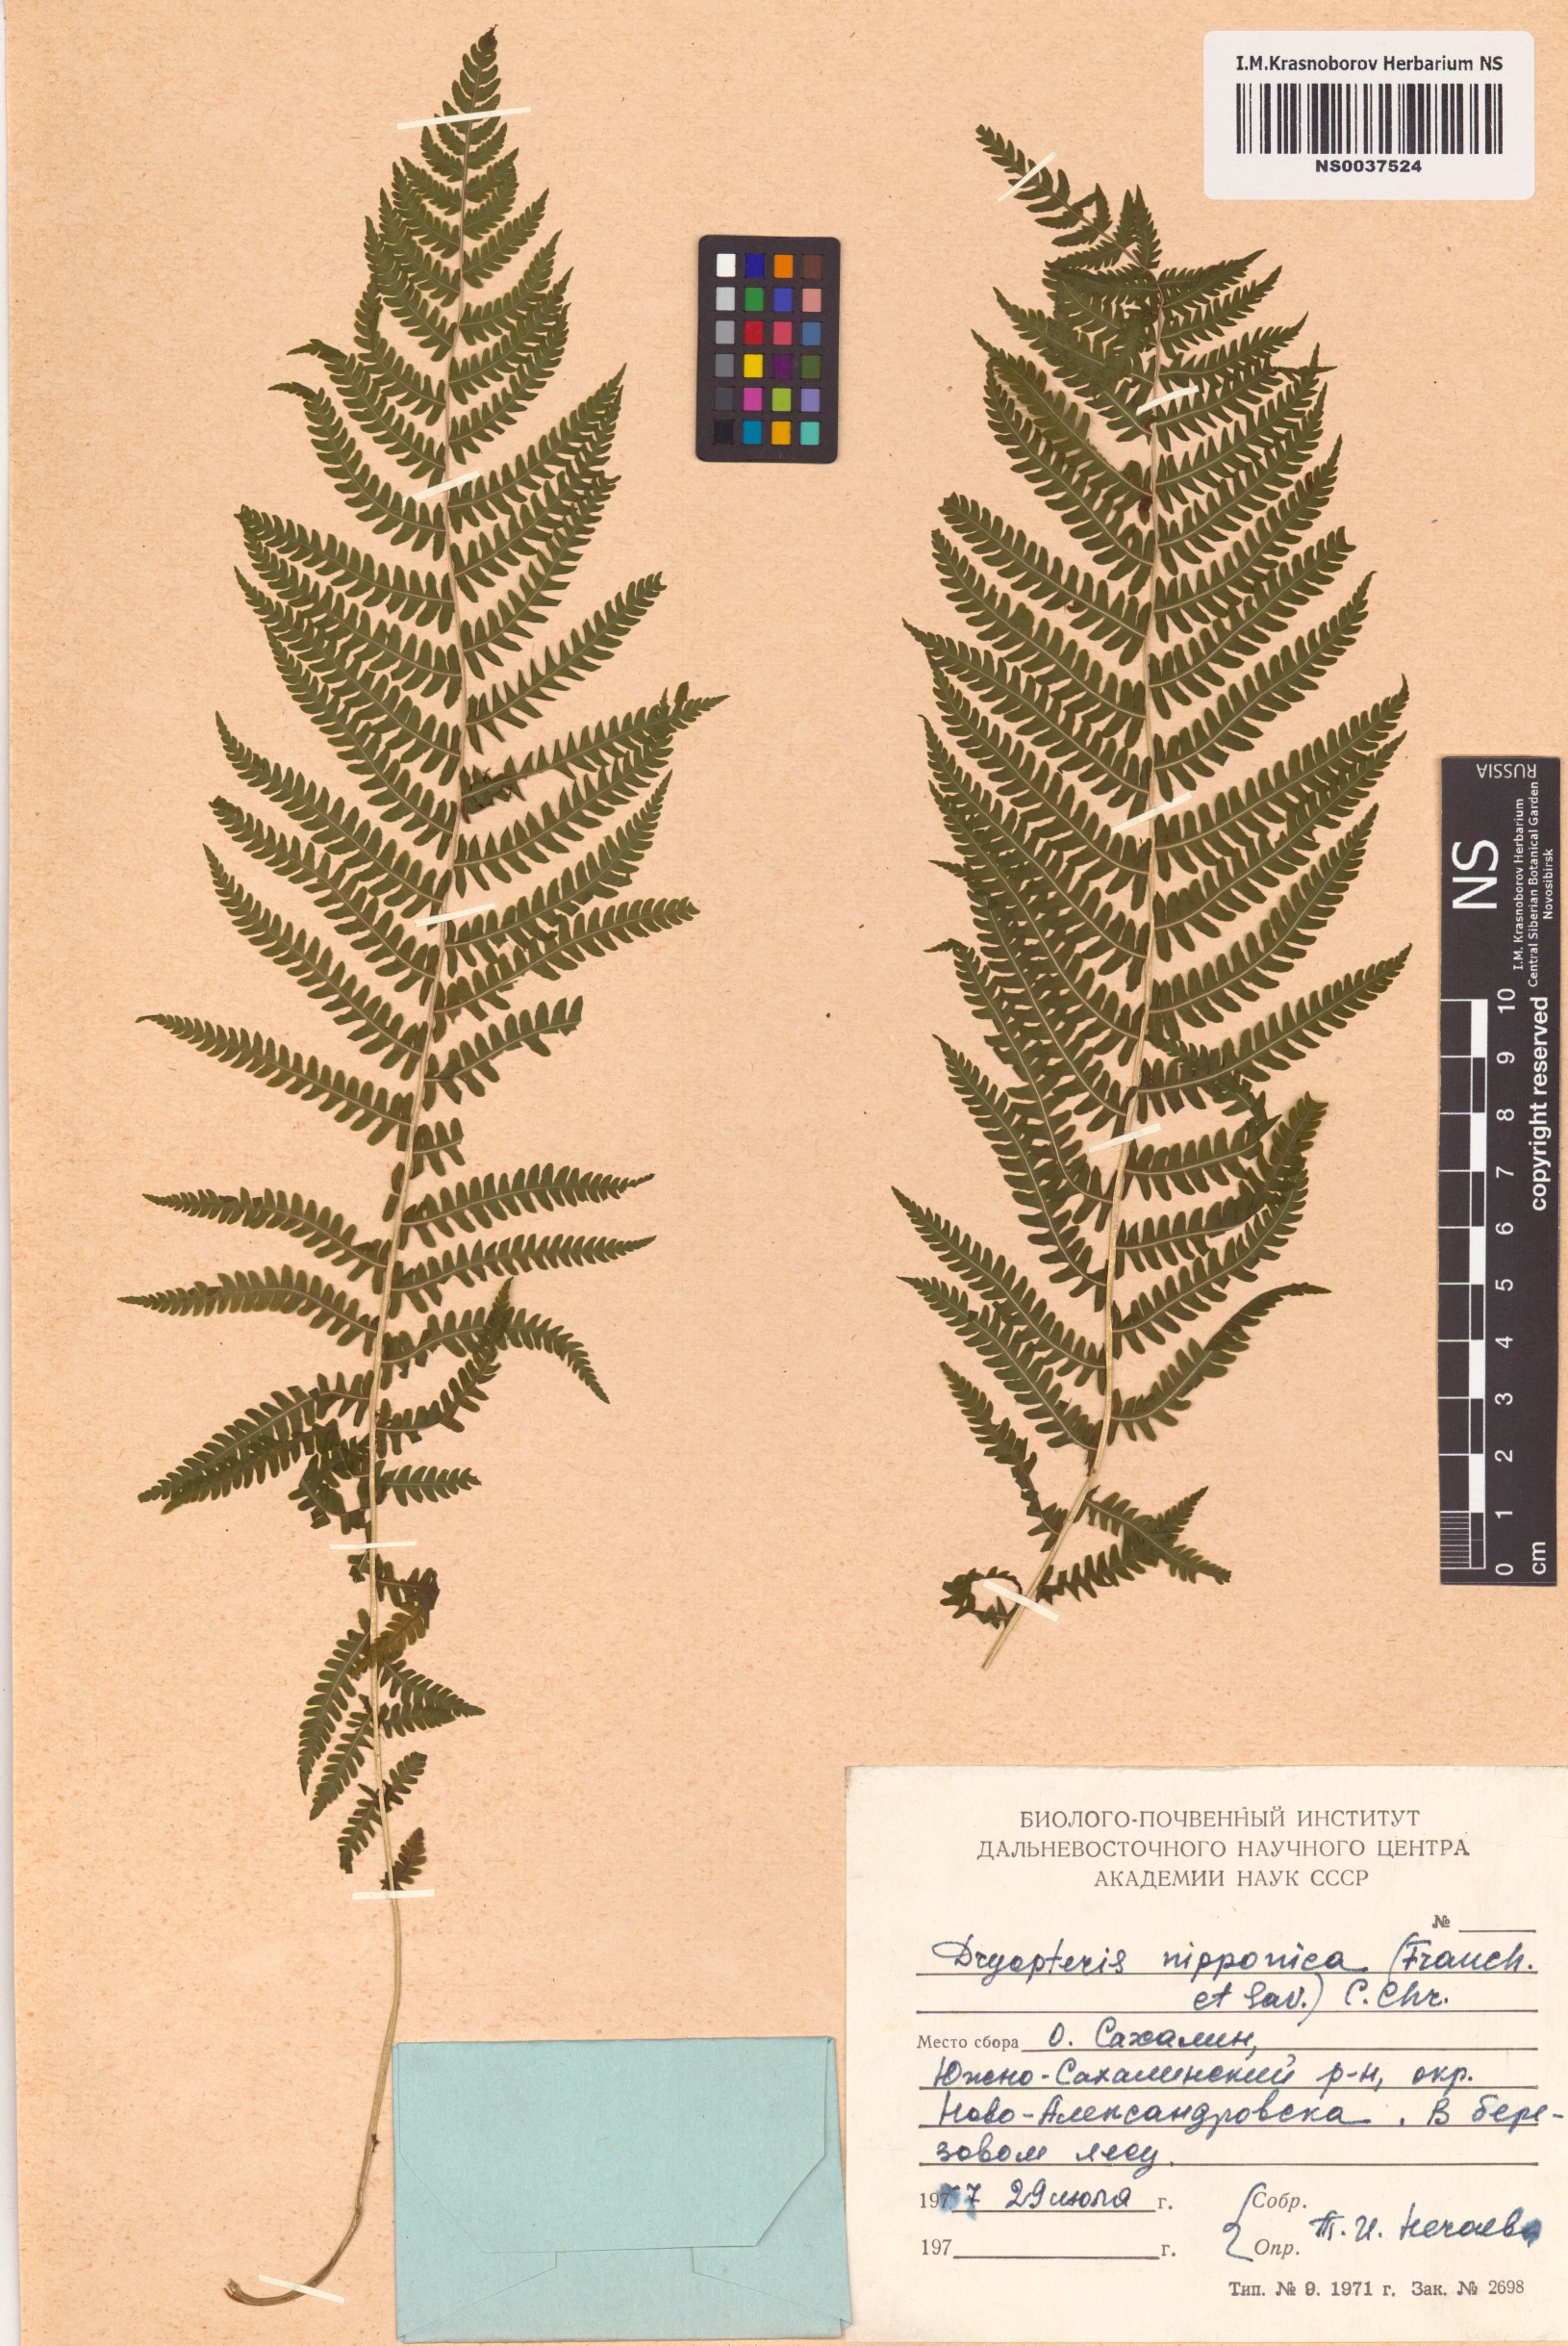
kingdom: Plantae
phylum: Tracheophyta
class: Polypodiopsida
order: Polypodiales
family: Thelypteridaceae
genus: Coryphopteris
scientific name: Coryphopteris nipponica
